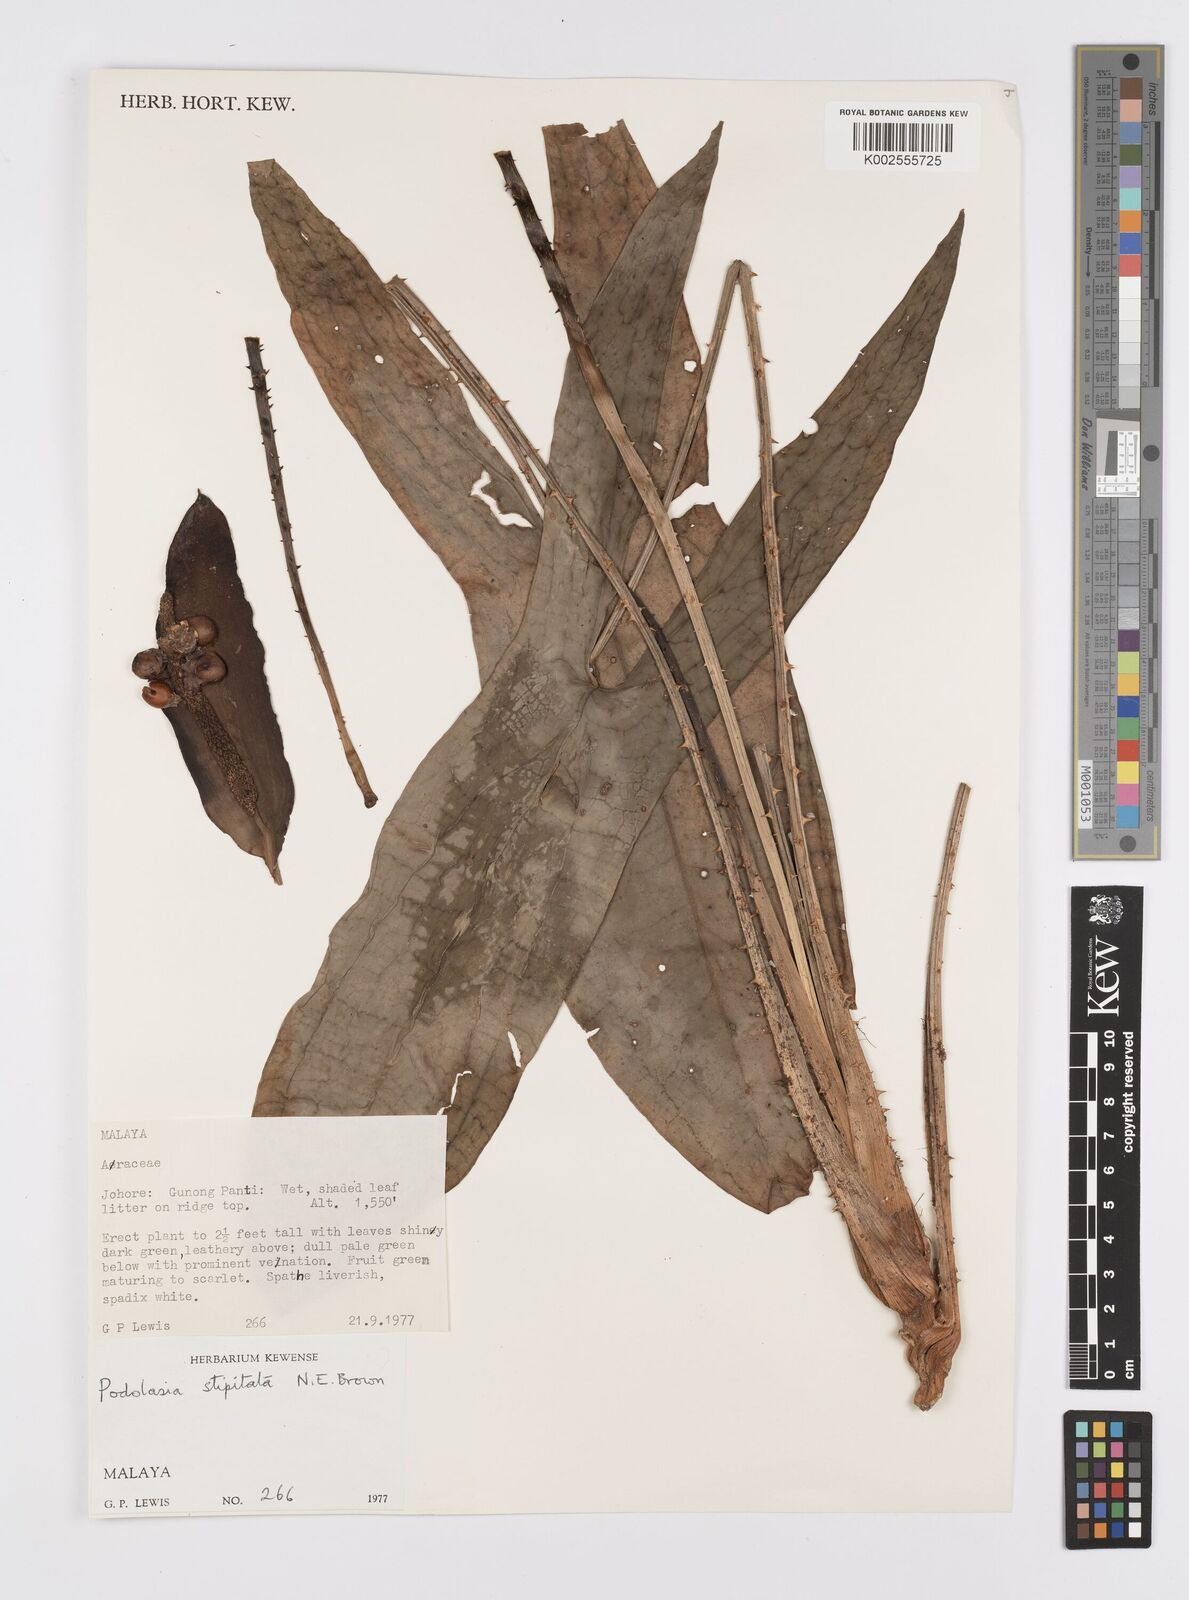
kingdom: Plantae
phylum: Tracheophyta
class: Liliopsida
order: Alismatales
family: Araceae
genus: Podolasia
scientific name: Podolasia stipitata
